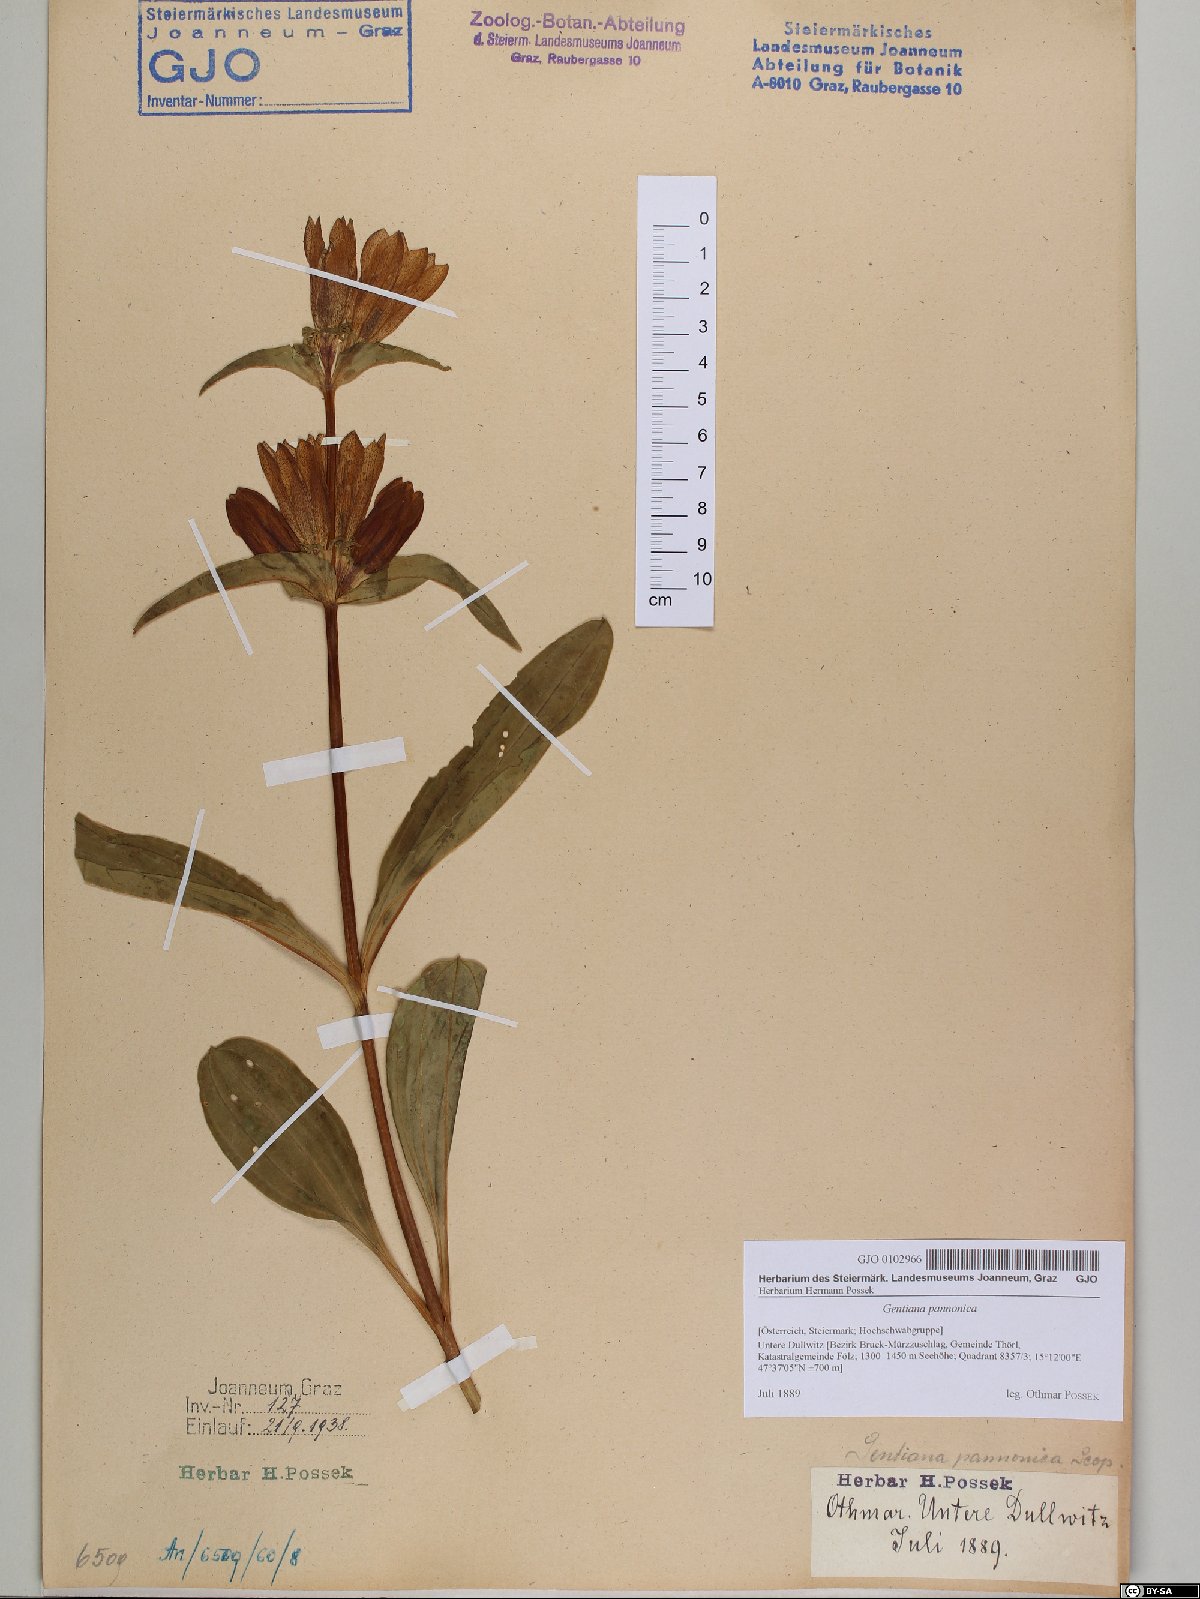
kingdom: Plantae
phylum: Tracheophyta
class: Magnoliopsida
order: Gentianales
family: Gentianaceae
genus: Gentiana
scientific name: Gentiana pannonica
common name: Hungarian gentian
